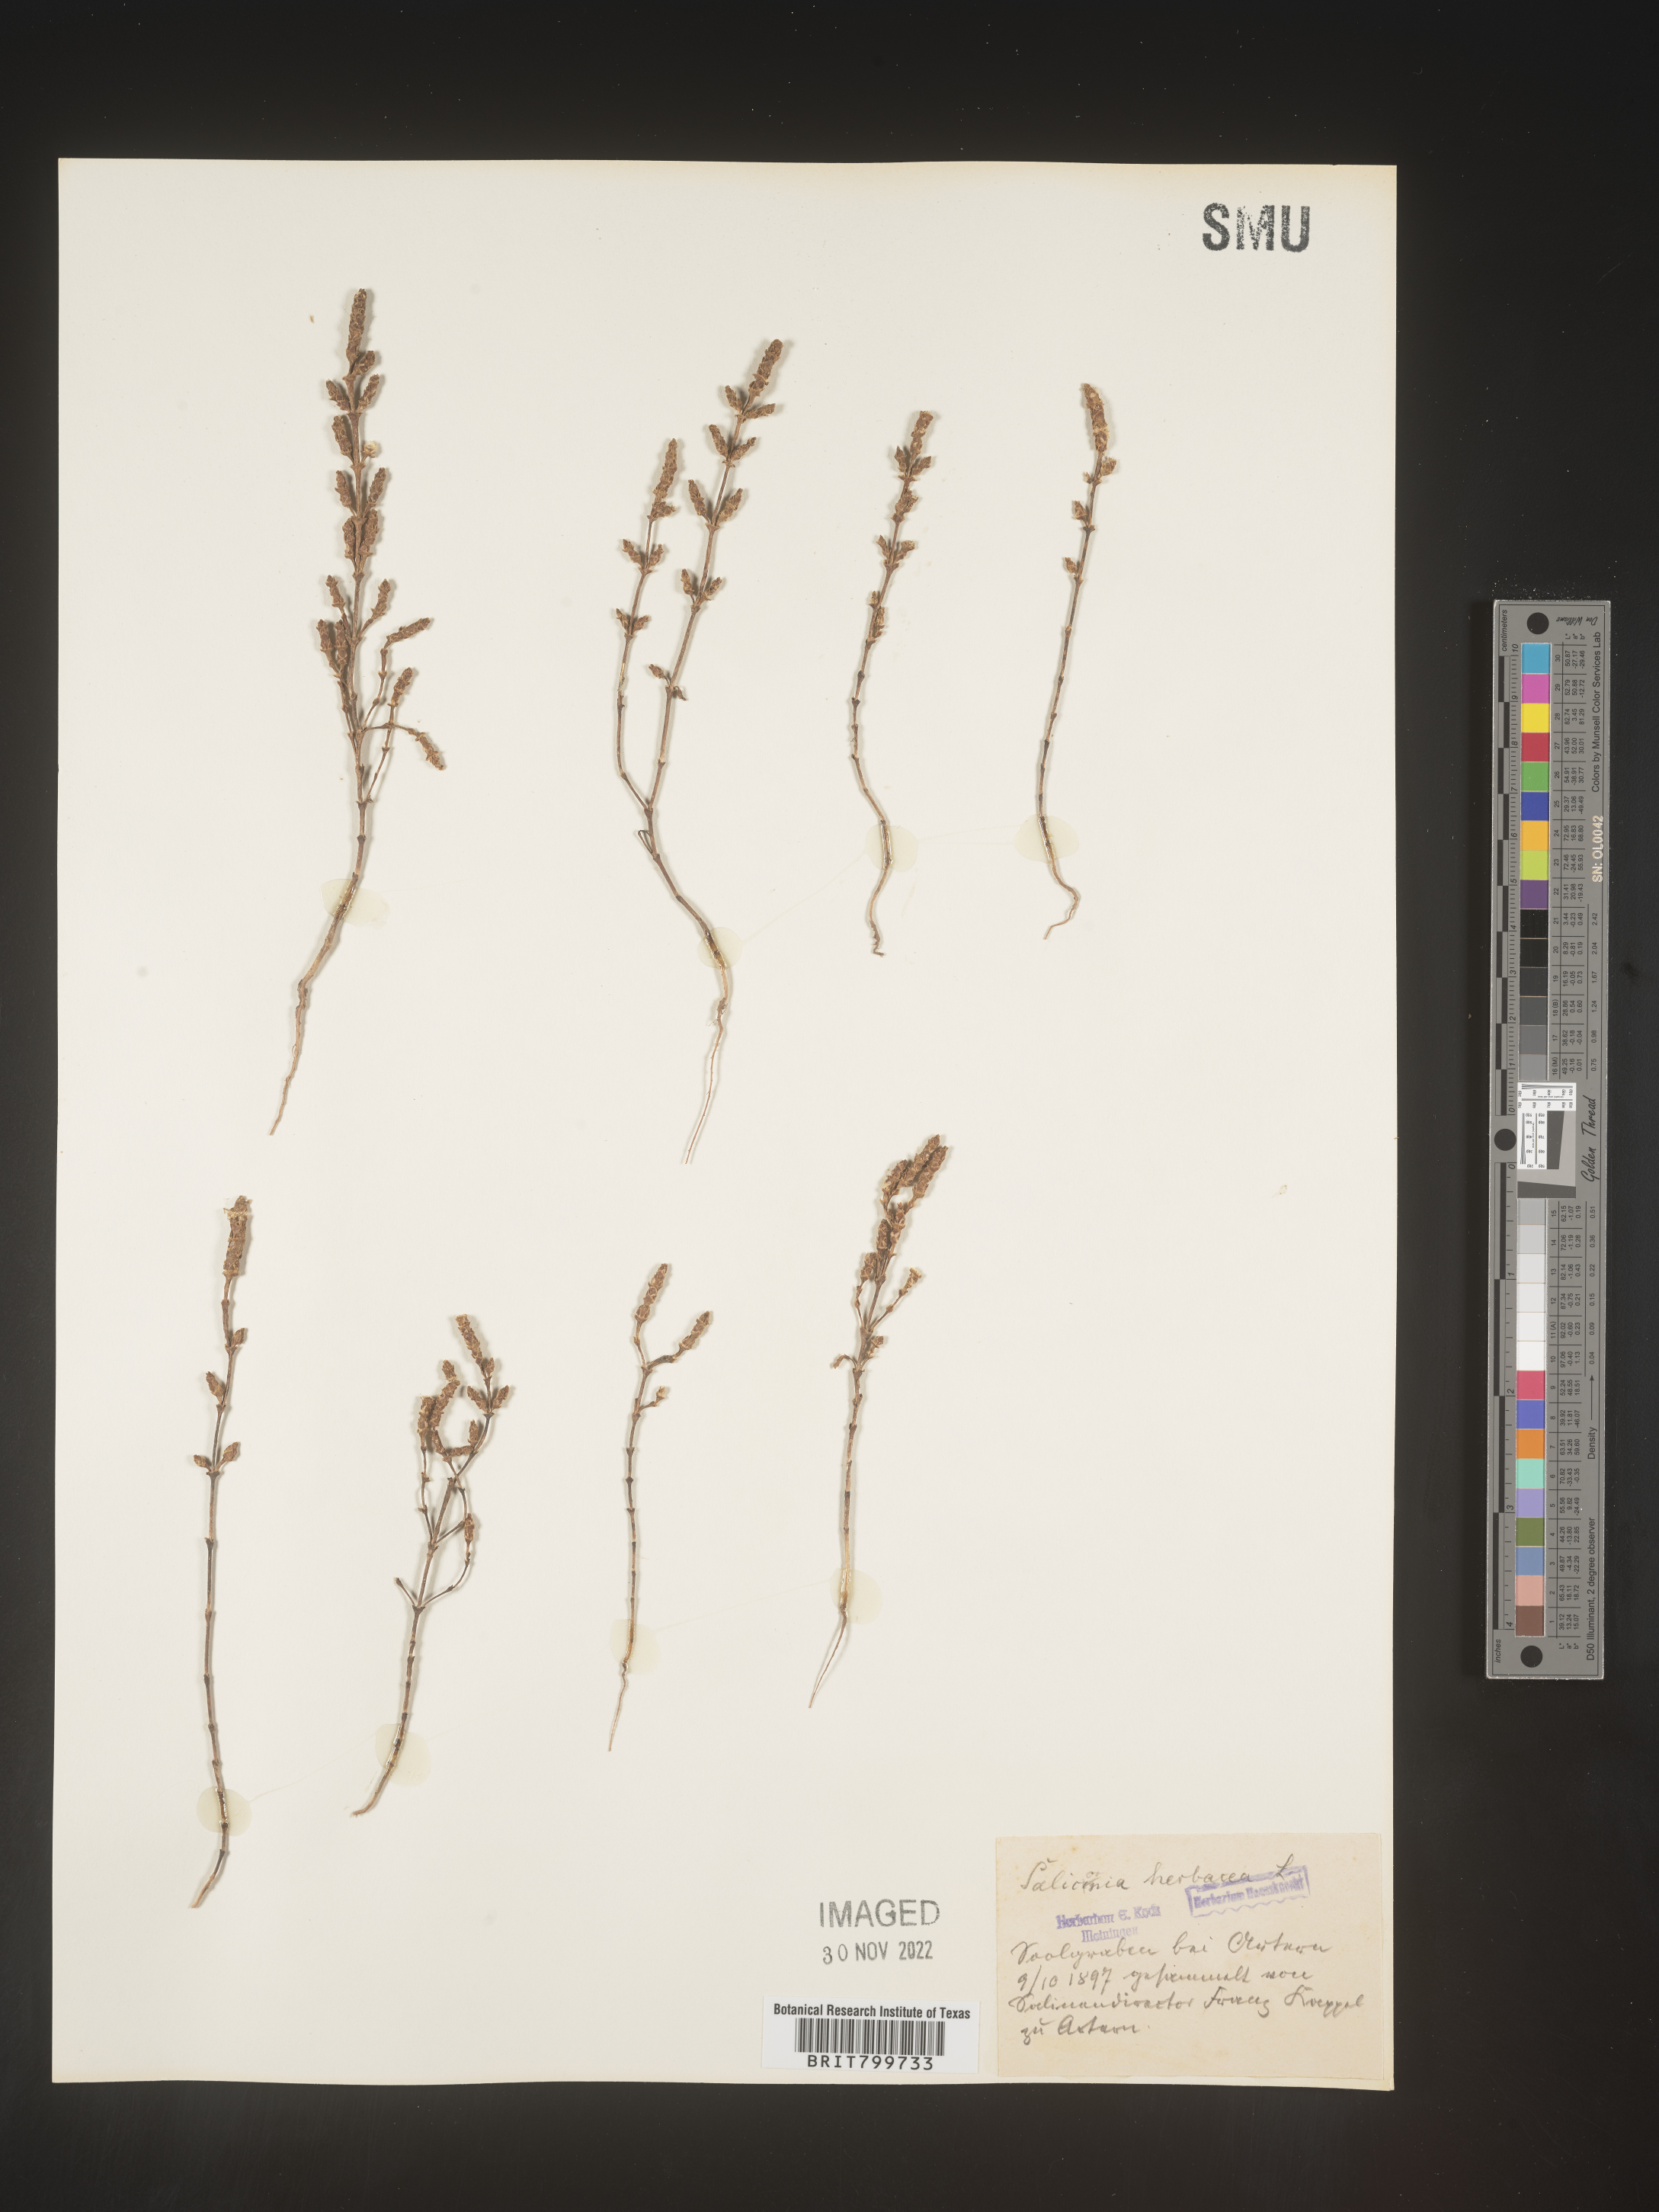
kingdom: Plantae
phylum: Tracheophyta
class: Magnoliopsida
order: Caryophyllales
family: Amaranthaceae
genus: Salicornia
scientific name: Salicornia
